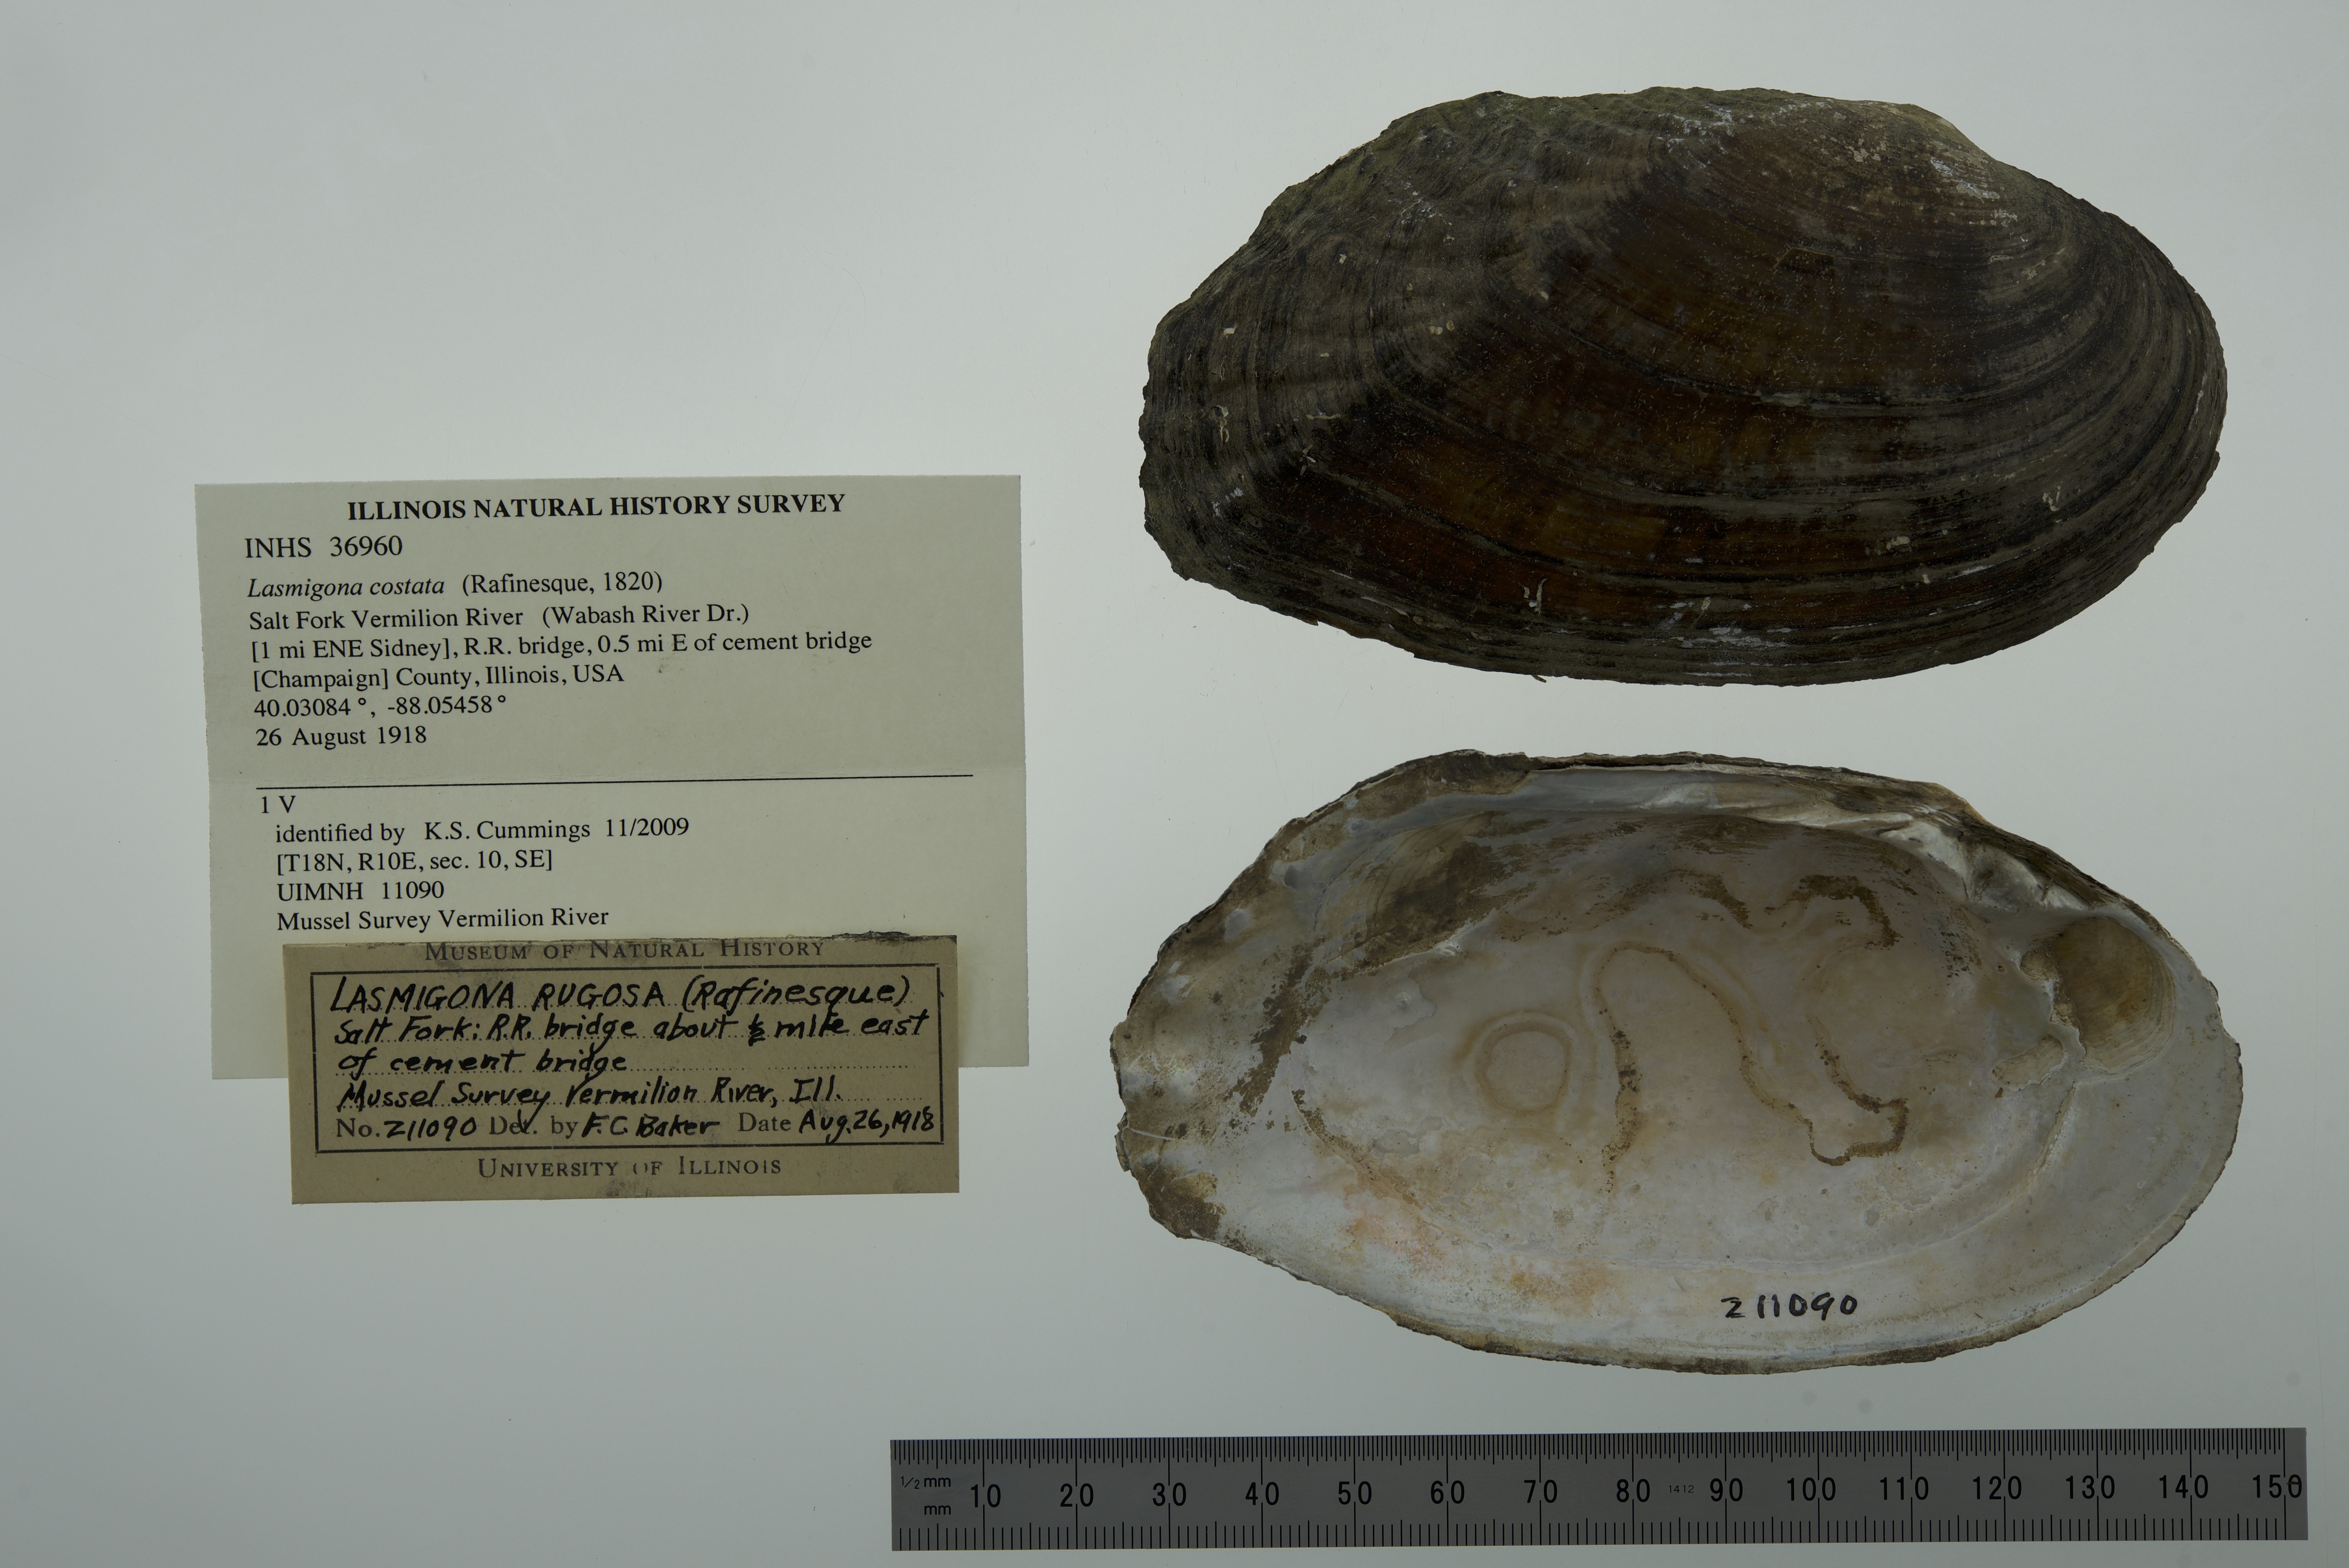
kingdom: Animalia
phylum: Mollusca
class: Bivalvia
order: Unionida
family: Unionidae
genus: Lasmigona
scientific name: Lasmigona costata
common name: Flutedshell
